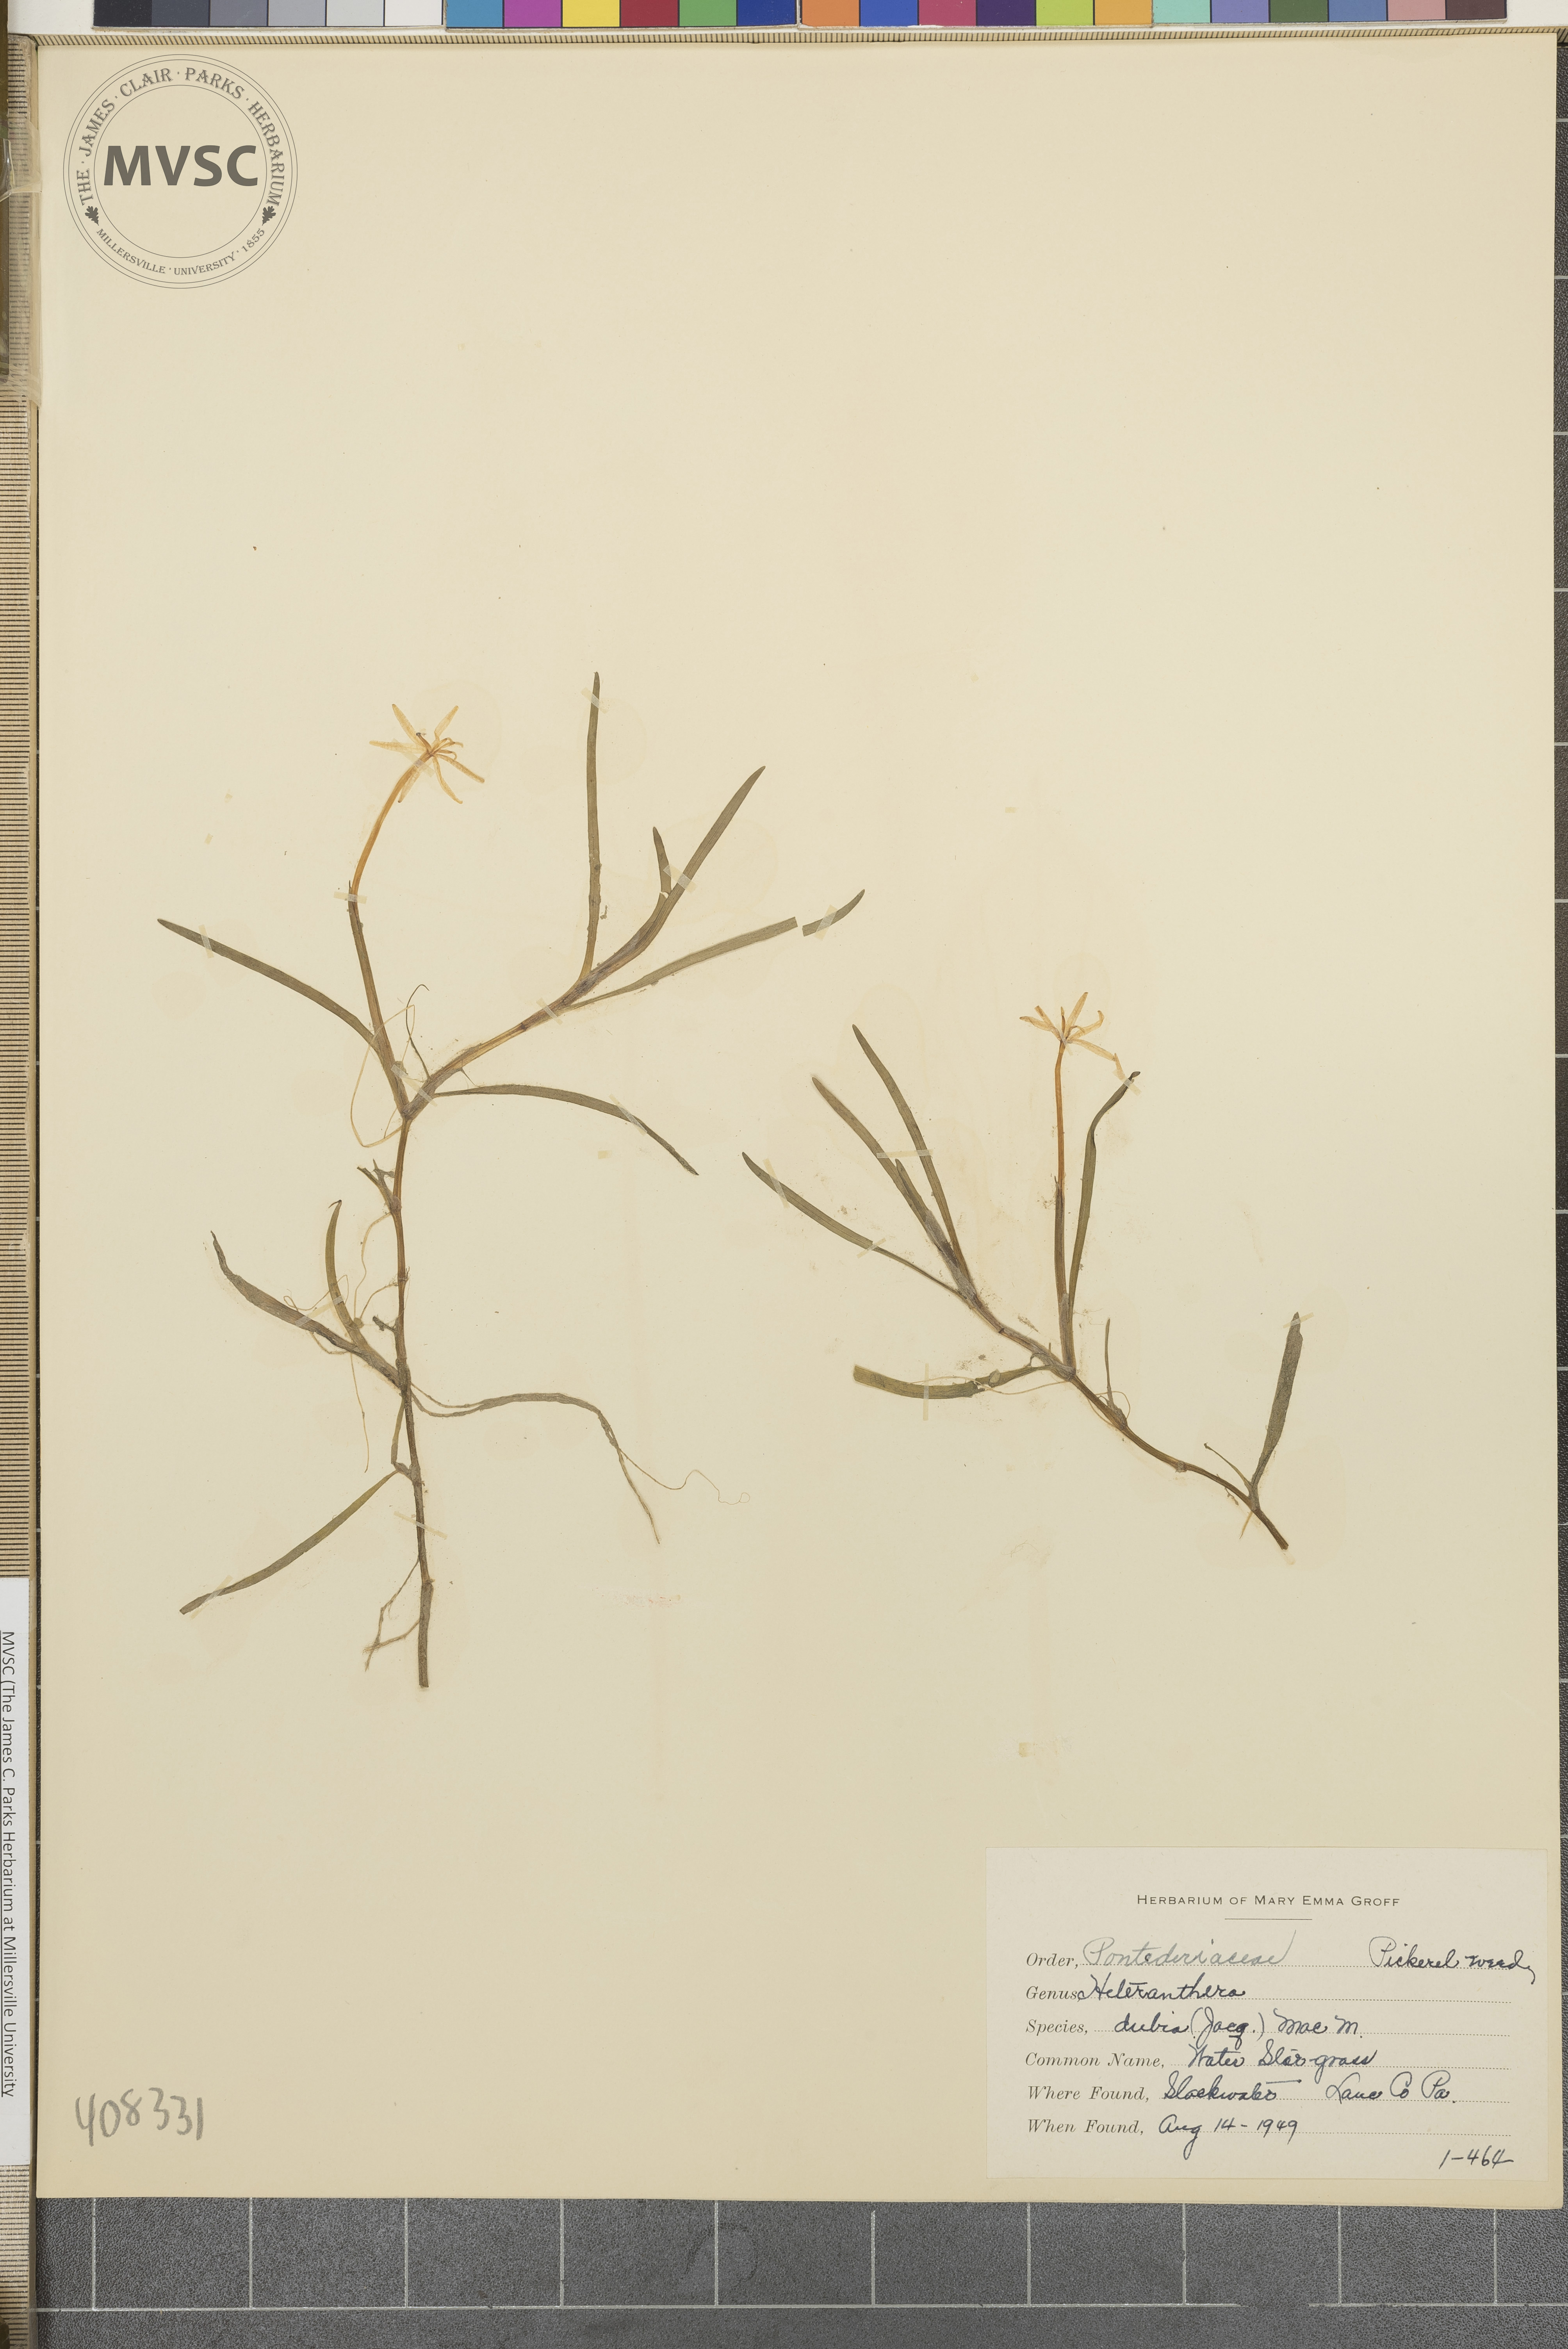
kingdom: Plantae
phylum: Tracheophyta
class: Liliopsida
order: Commelinales
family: Pontederiaceae
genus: Heteranthera
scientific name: Heteranthera dubia
